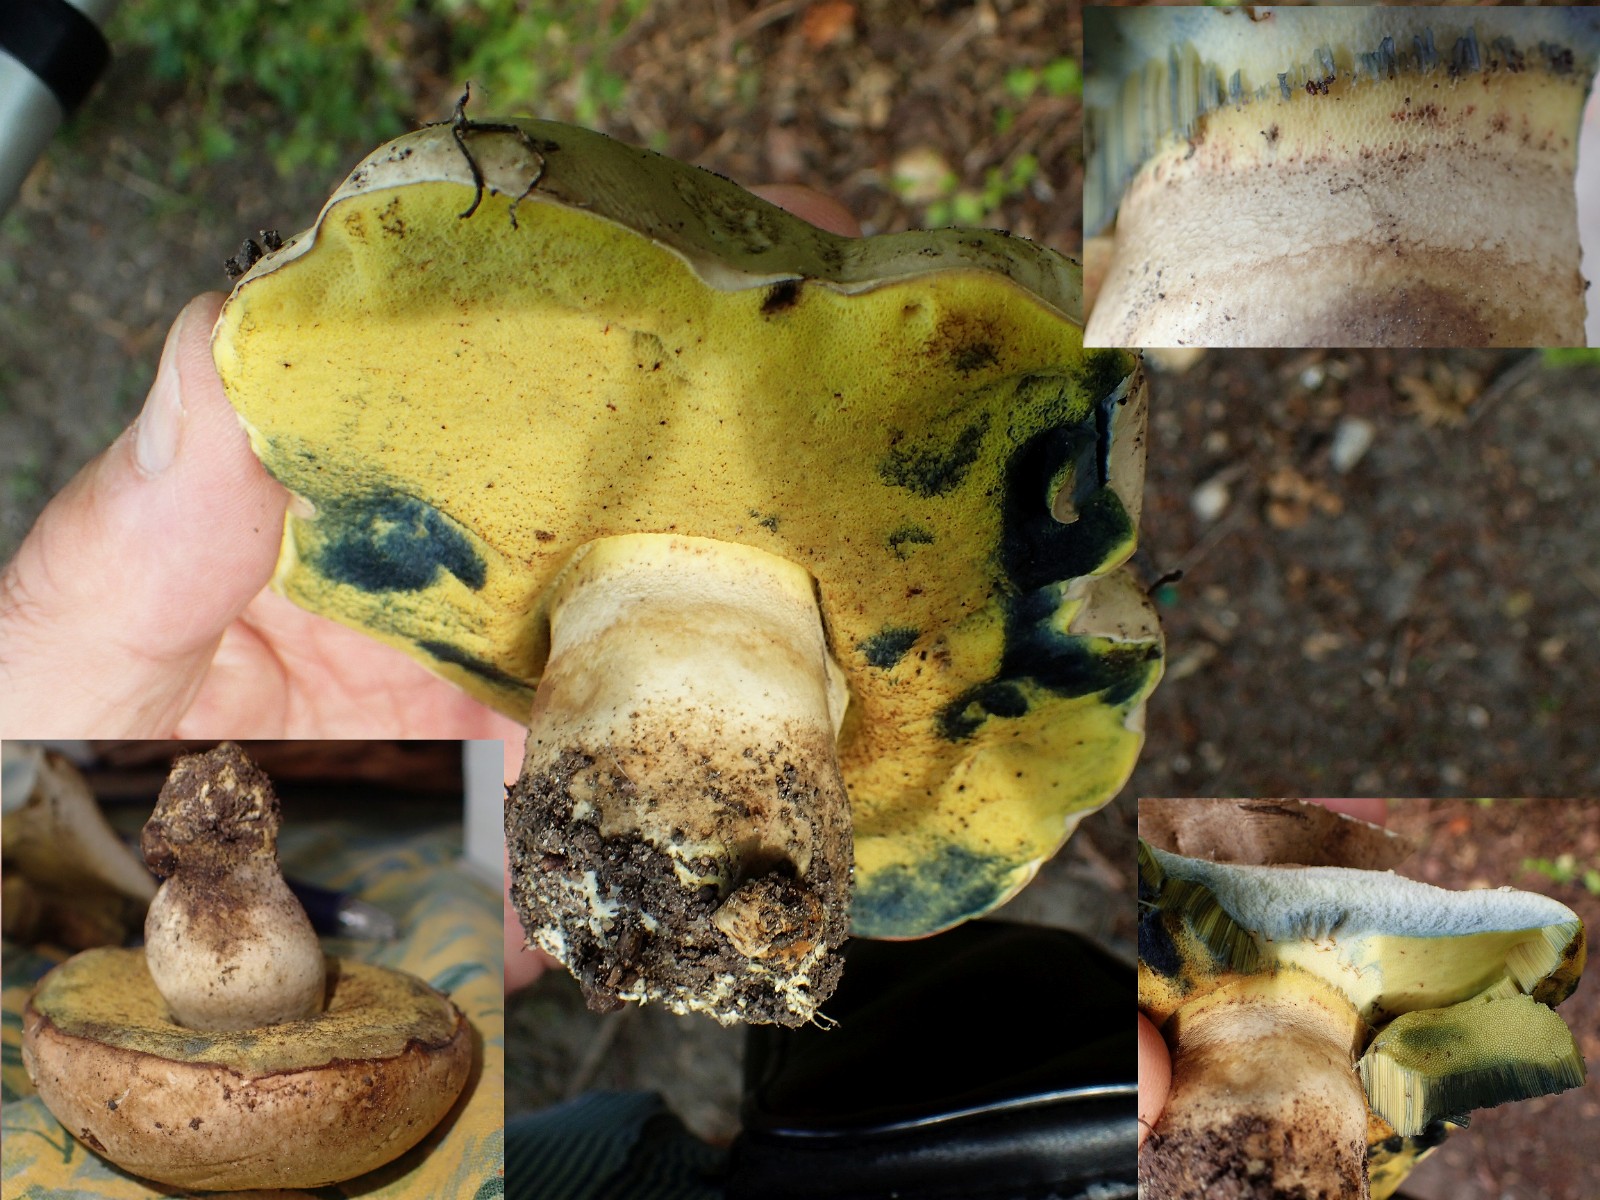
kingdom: Fungi
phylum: Basidiomycota
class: Agaricomycetes
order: Boletales
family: Boletaceae
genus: Caloboletus
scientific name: Caloboletus radicans
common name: rod-rørhat
